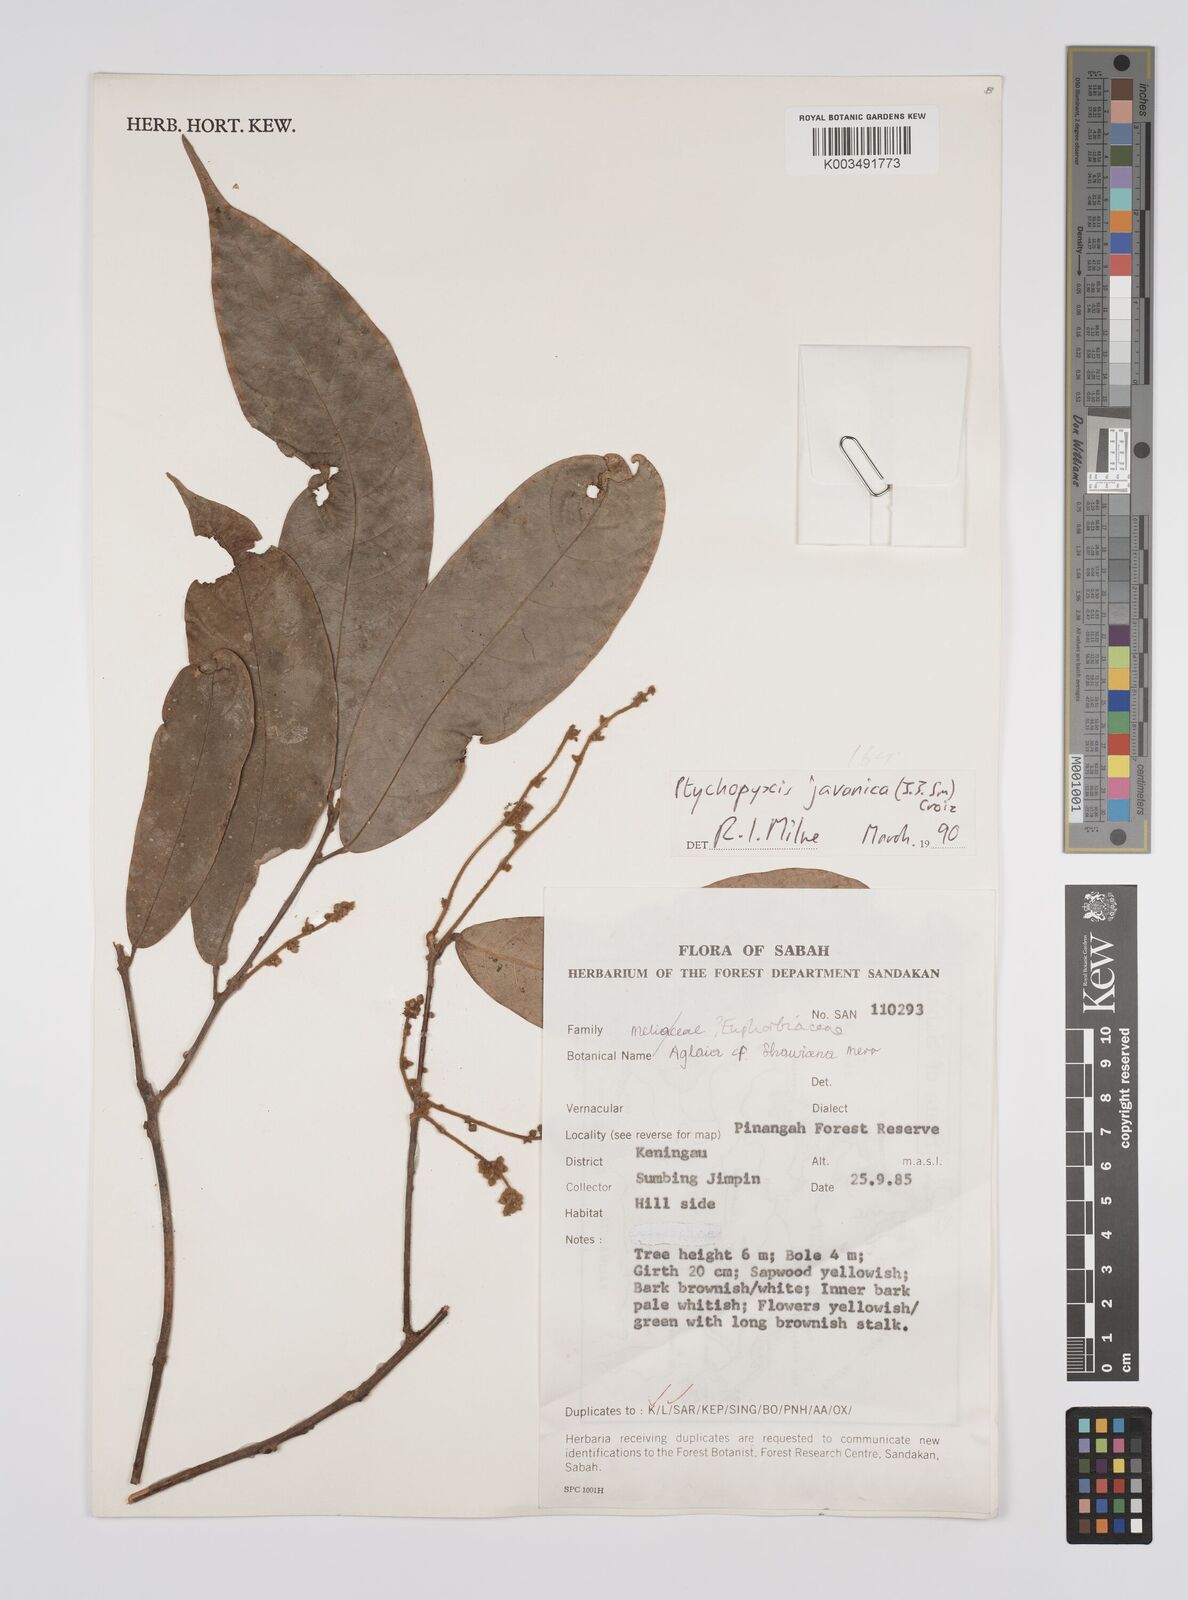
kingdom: Plantae
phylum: Tracheophyta
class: Magnoliopsida
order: Malpighiales
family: Euphorbiaceae
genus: Ptychopyxis
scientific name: Ptychopyxis javanica
